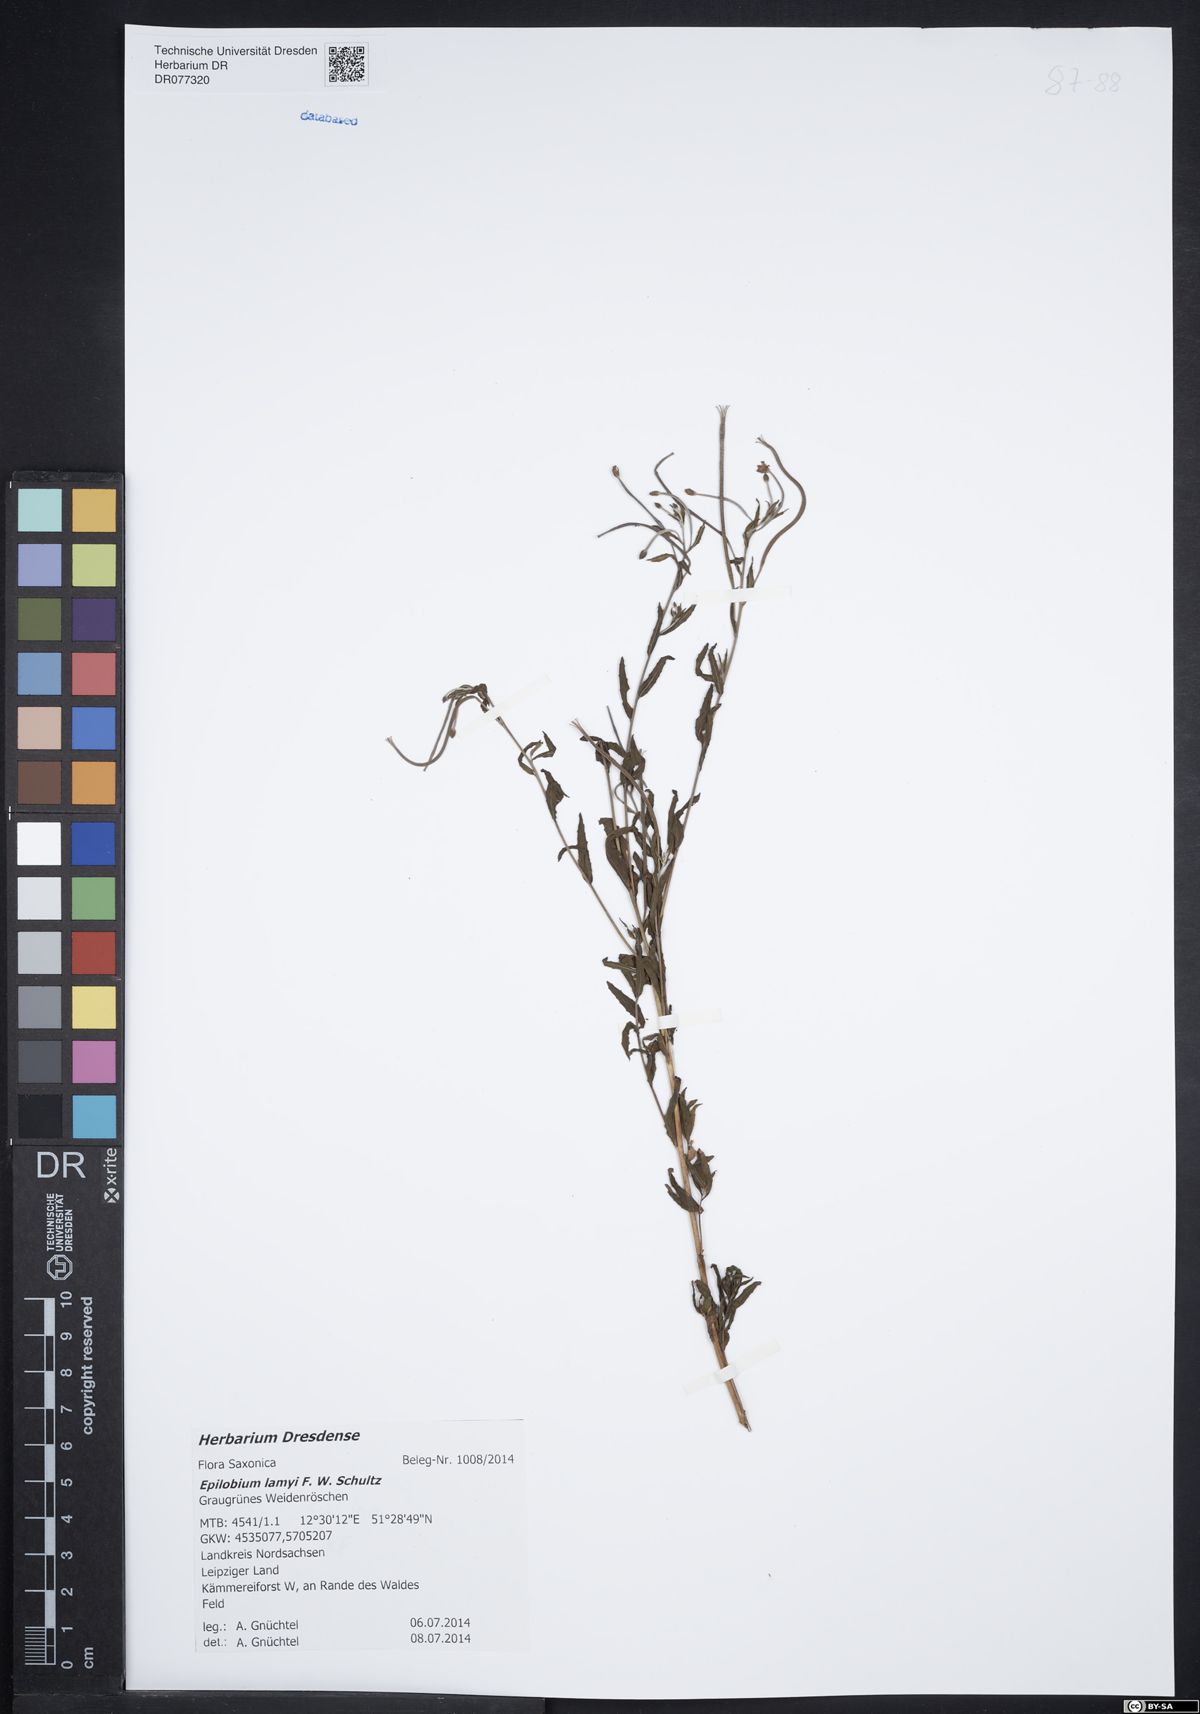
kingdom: Plantae
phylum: Tracheophyta
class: Magnoliopsida
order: Myrtales
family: Onagraceae
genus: Epilobium
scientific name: Epilobium lamyi
